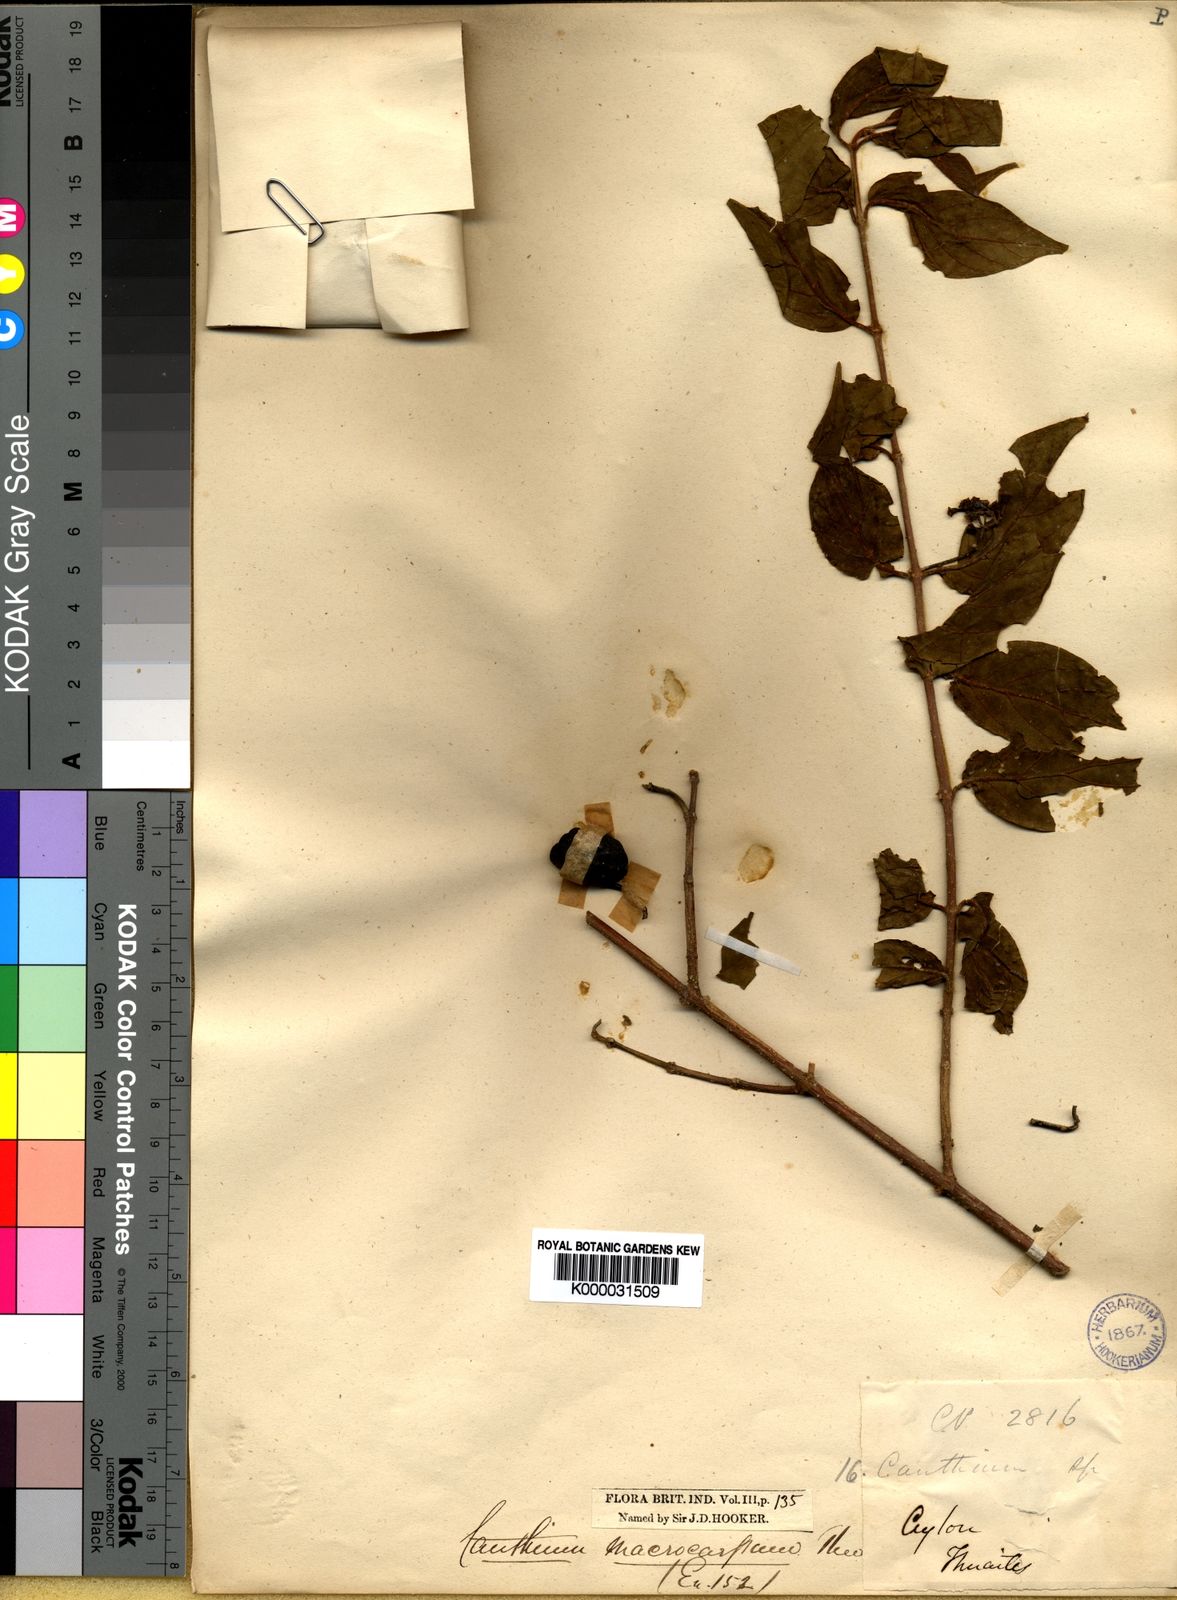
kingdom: Plantae
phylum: Tracheophyta
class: Magnoliopsida
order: Gentianales
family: Rubiaceae
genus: Canthium
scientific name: Canthium macrocarpum
